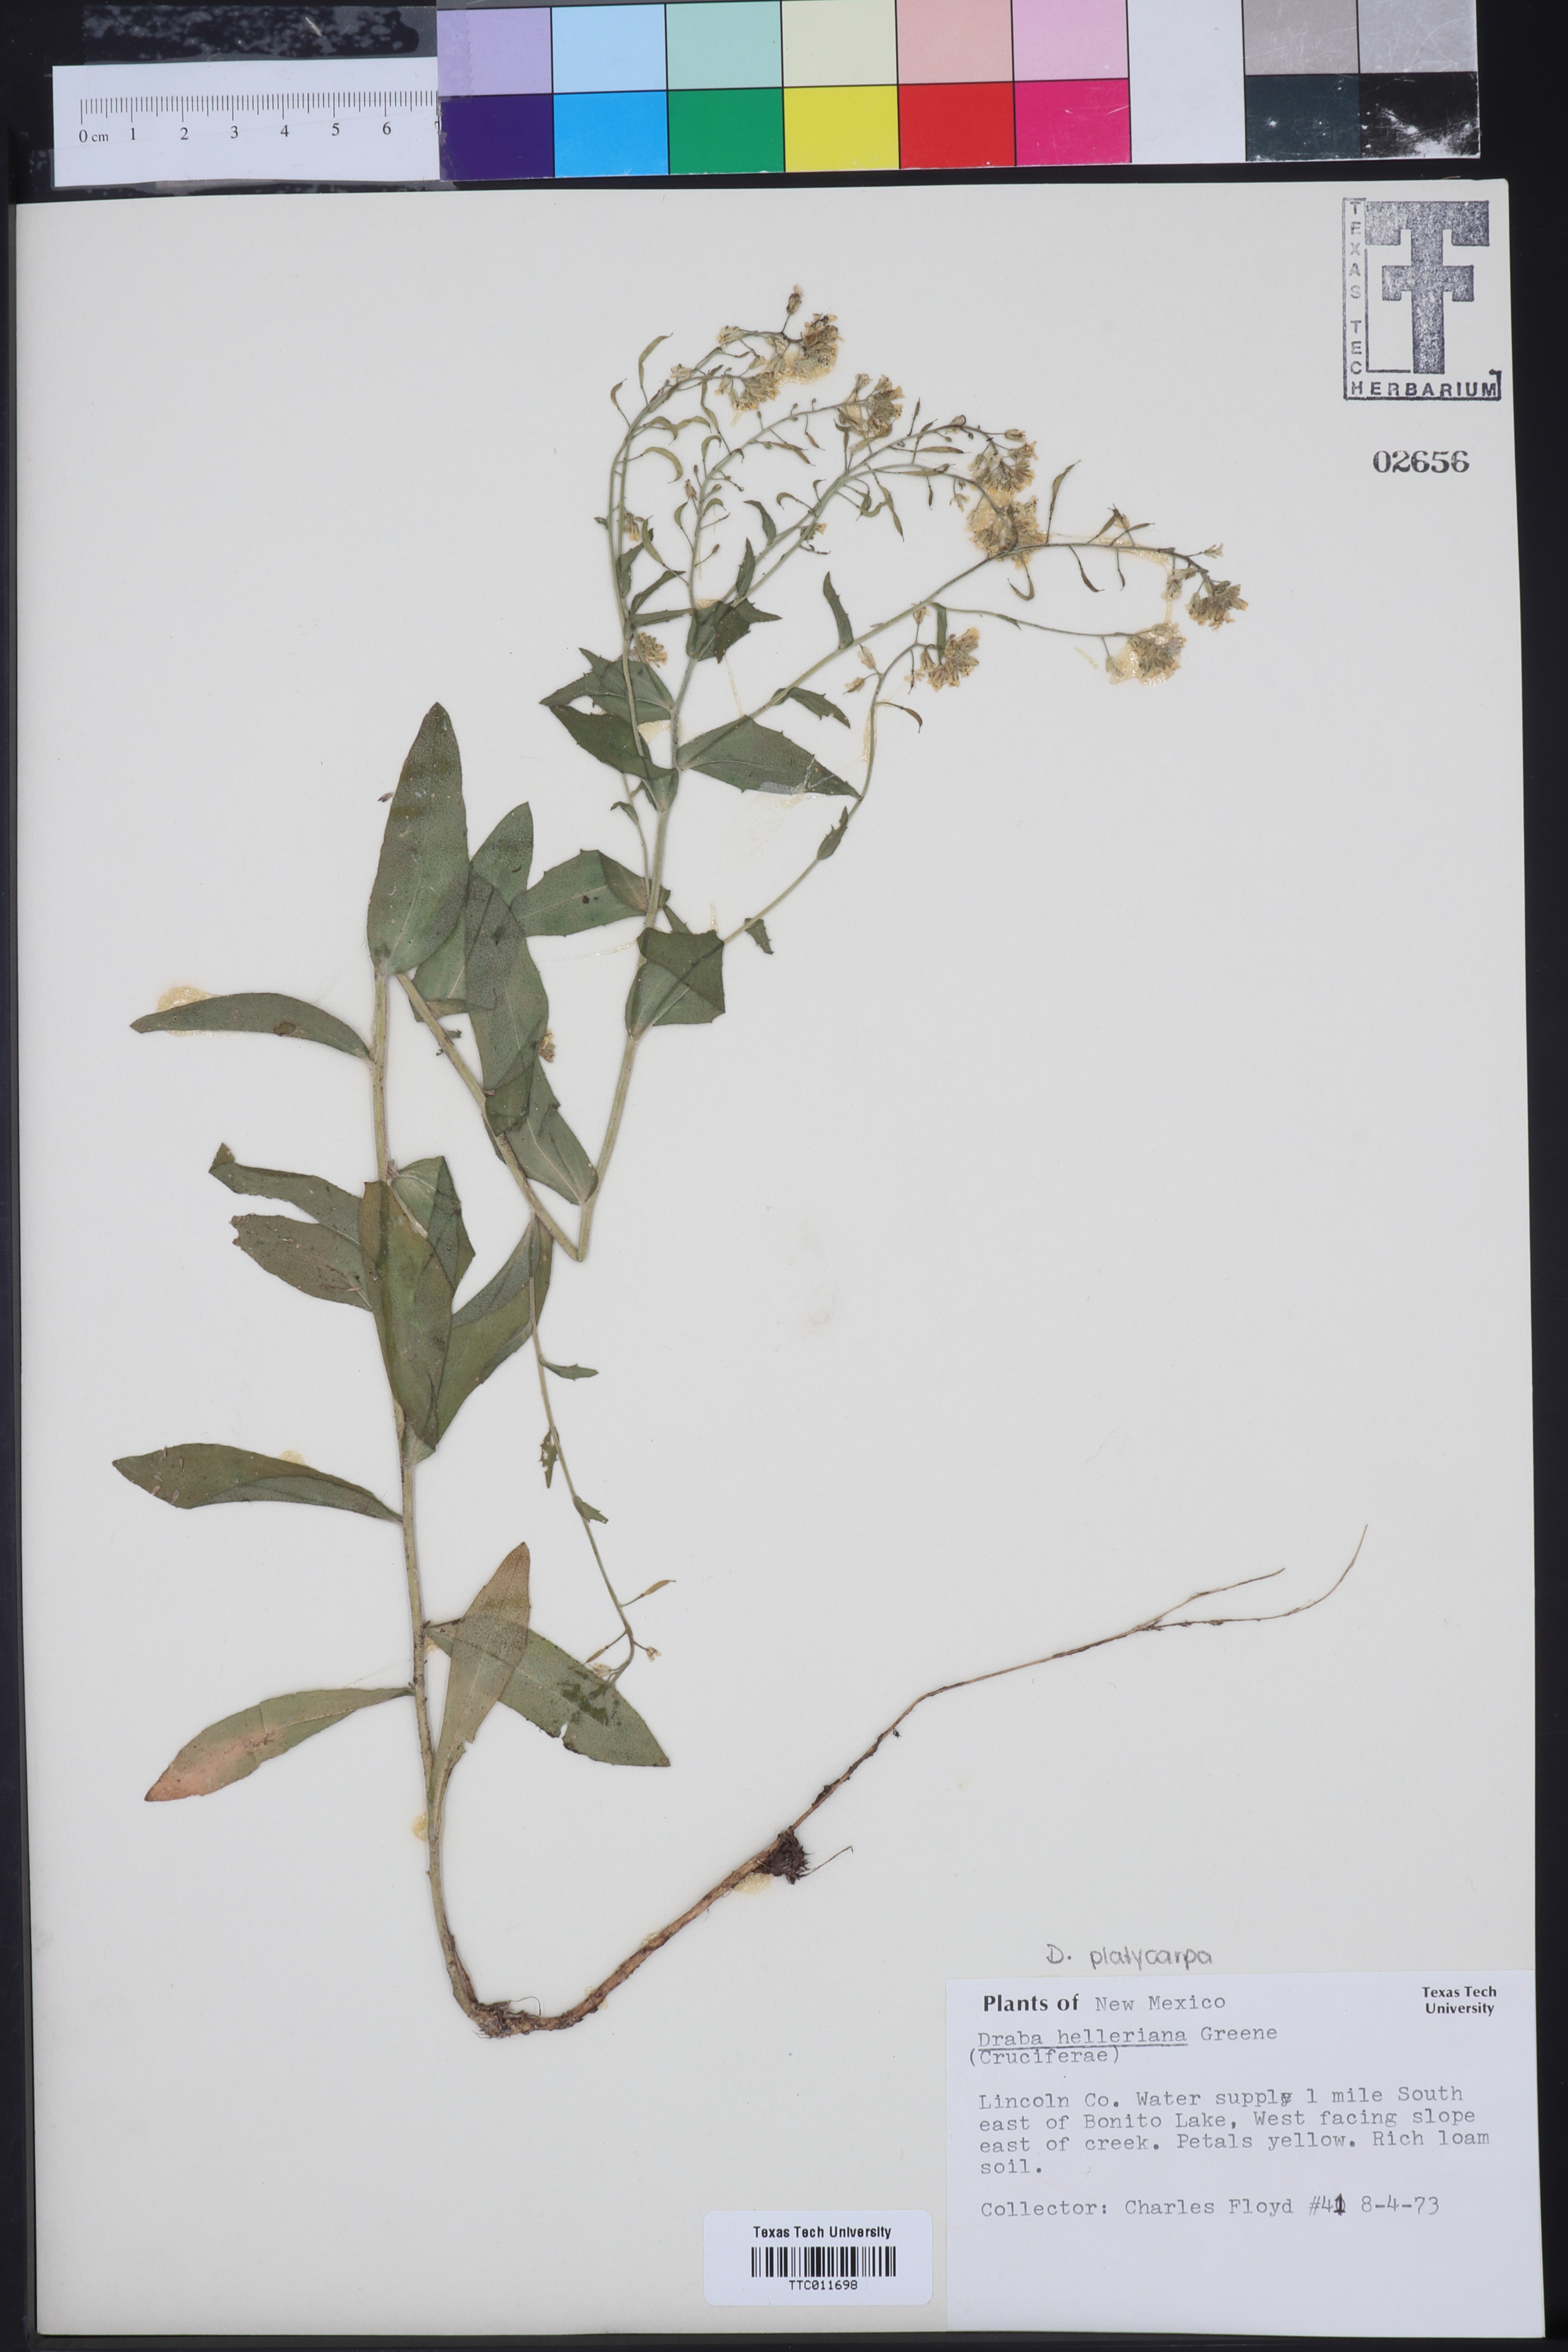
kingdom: Plantae
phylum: Tracheophyta
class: Magnoliopsida
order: Brassicales
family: Brassicaceae
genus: Draba
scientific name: Draba helleriana
